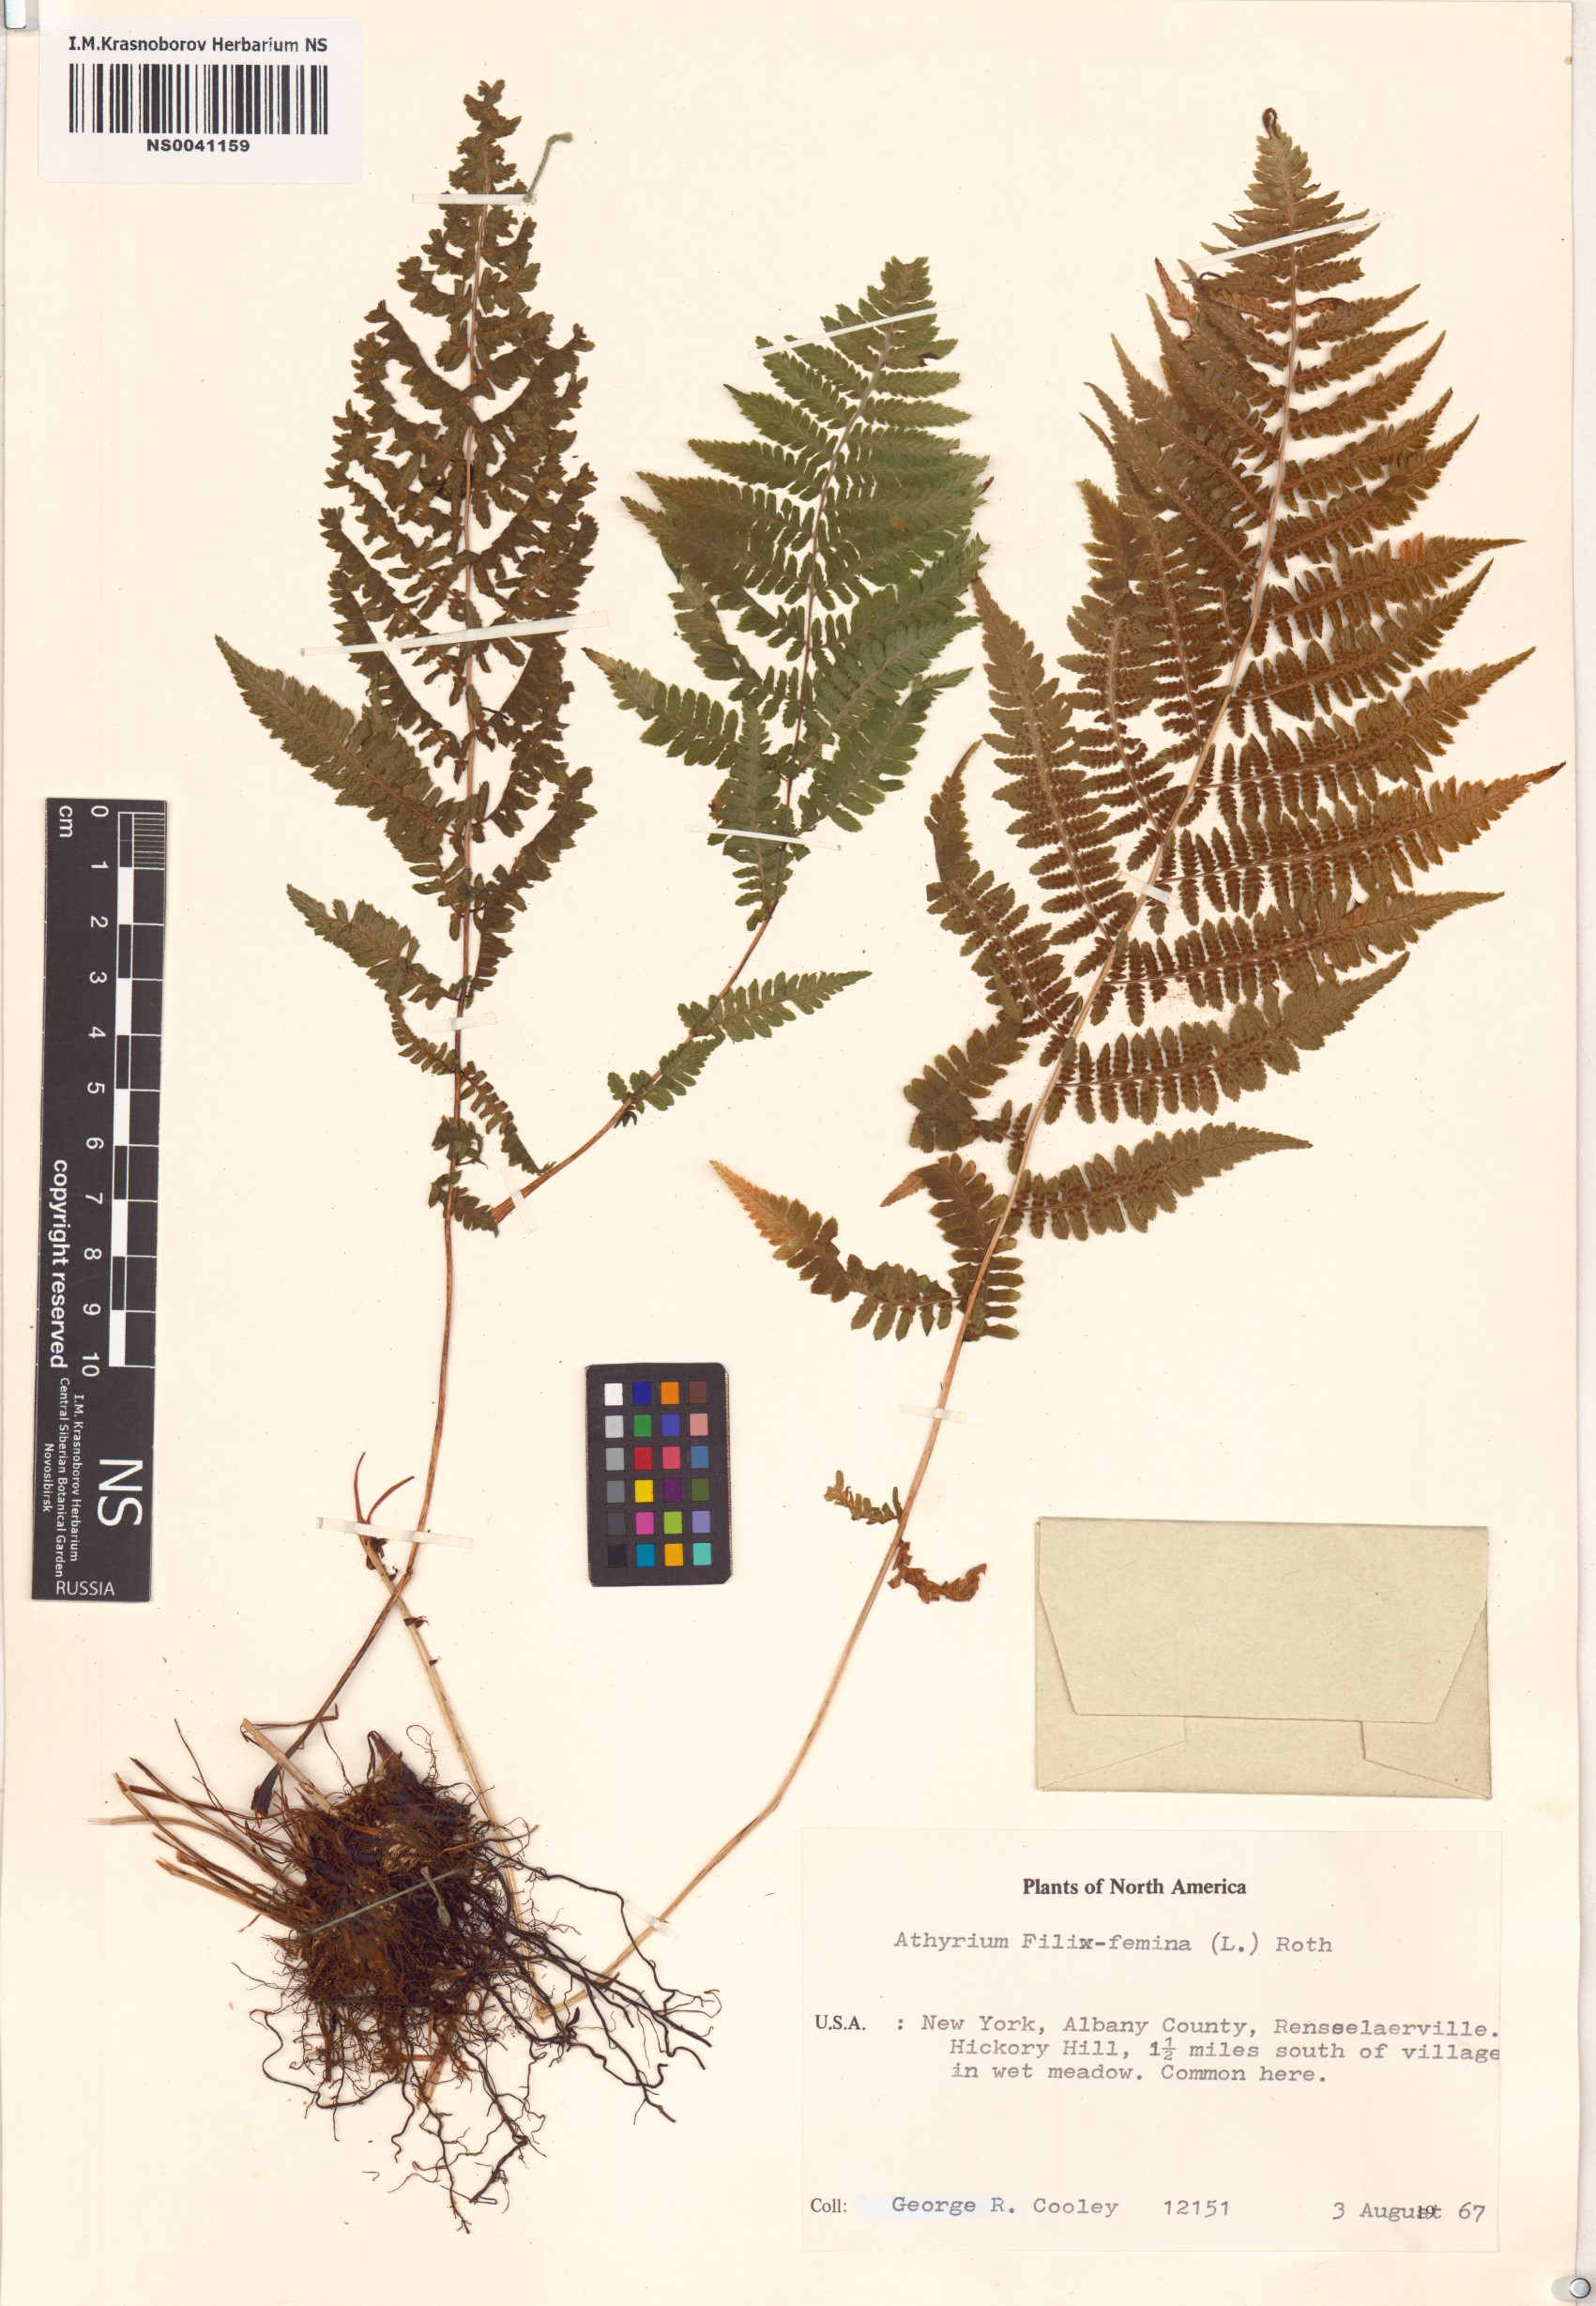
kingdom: Plantae
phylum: Tracheophyta
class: Polypodiopsida
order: Polypodiales
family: Athyriaceae
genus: Athyrium
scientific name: Athyrium filix-femina
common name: Lady fern
